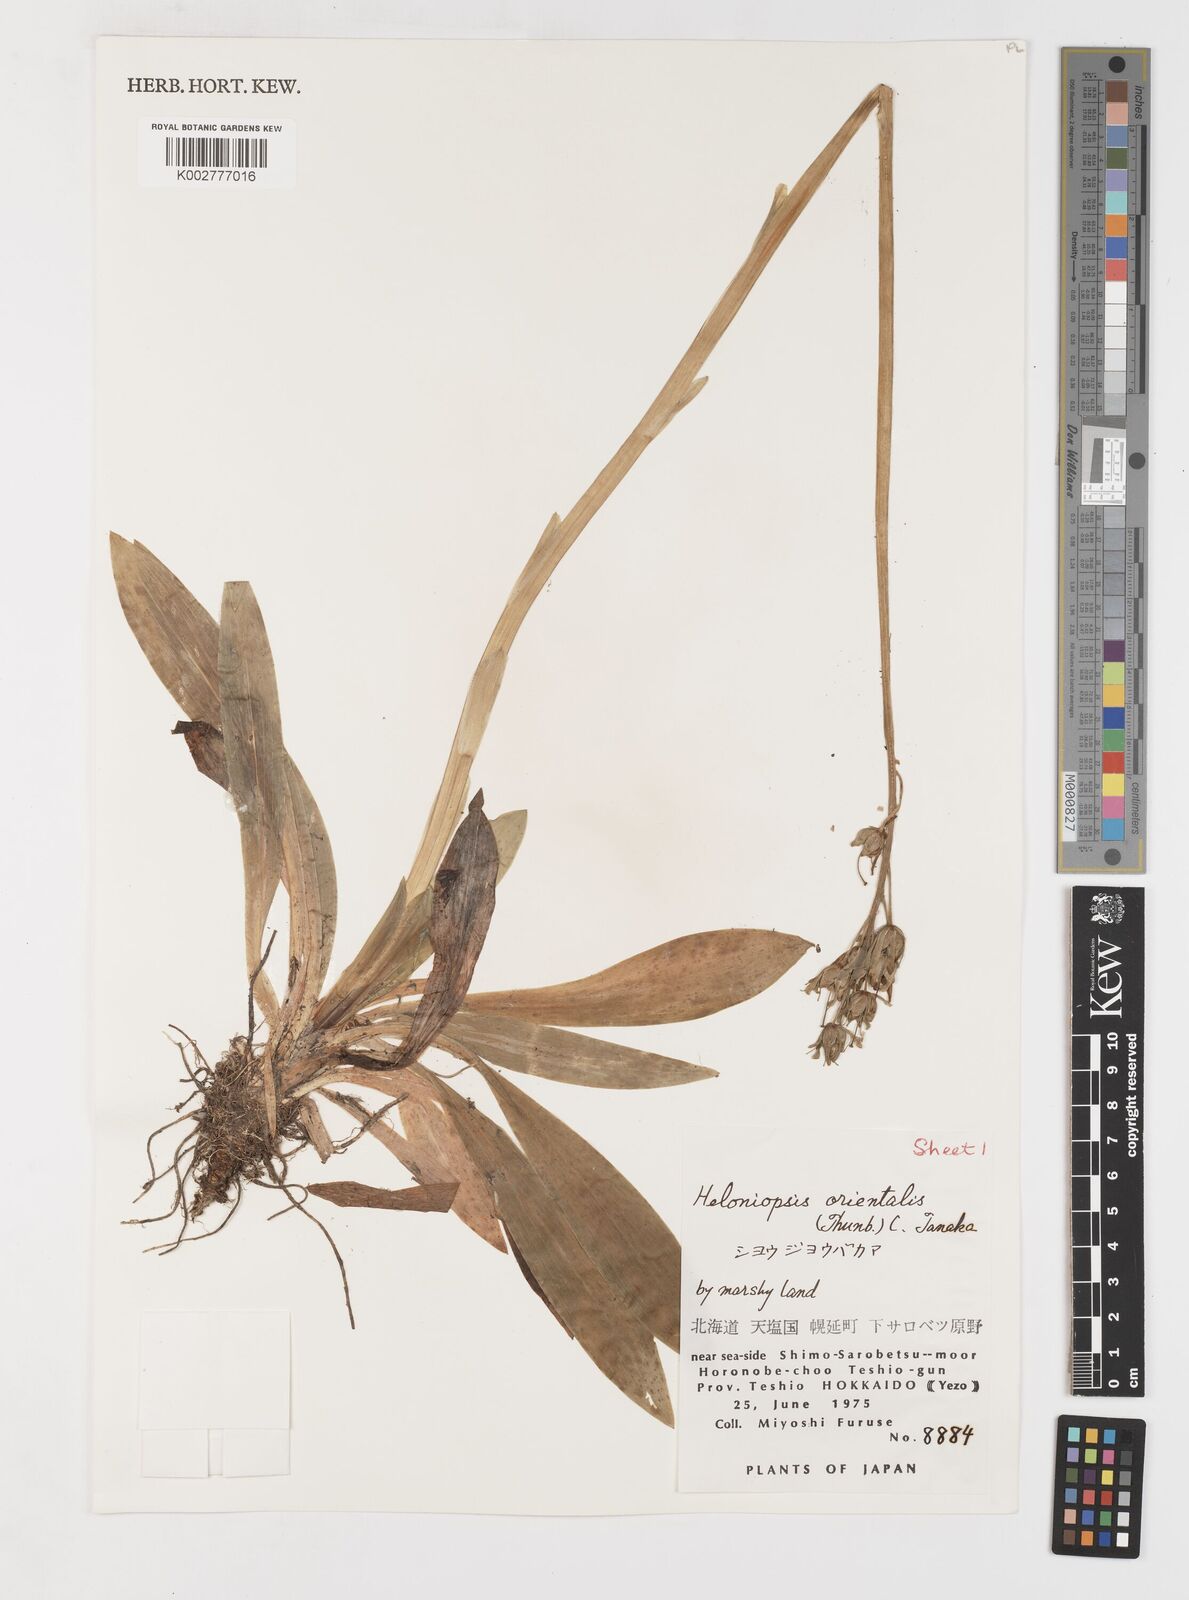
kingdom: Plantae
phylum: Tracheophyta
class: Liliopsida
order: Liliales
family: Melanthiaceae
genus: Helonias
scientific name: Helonias orientalis
